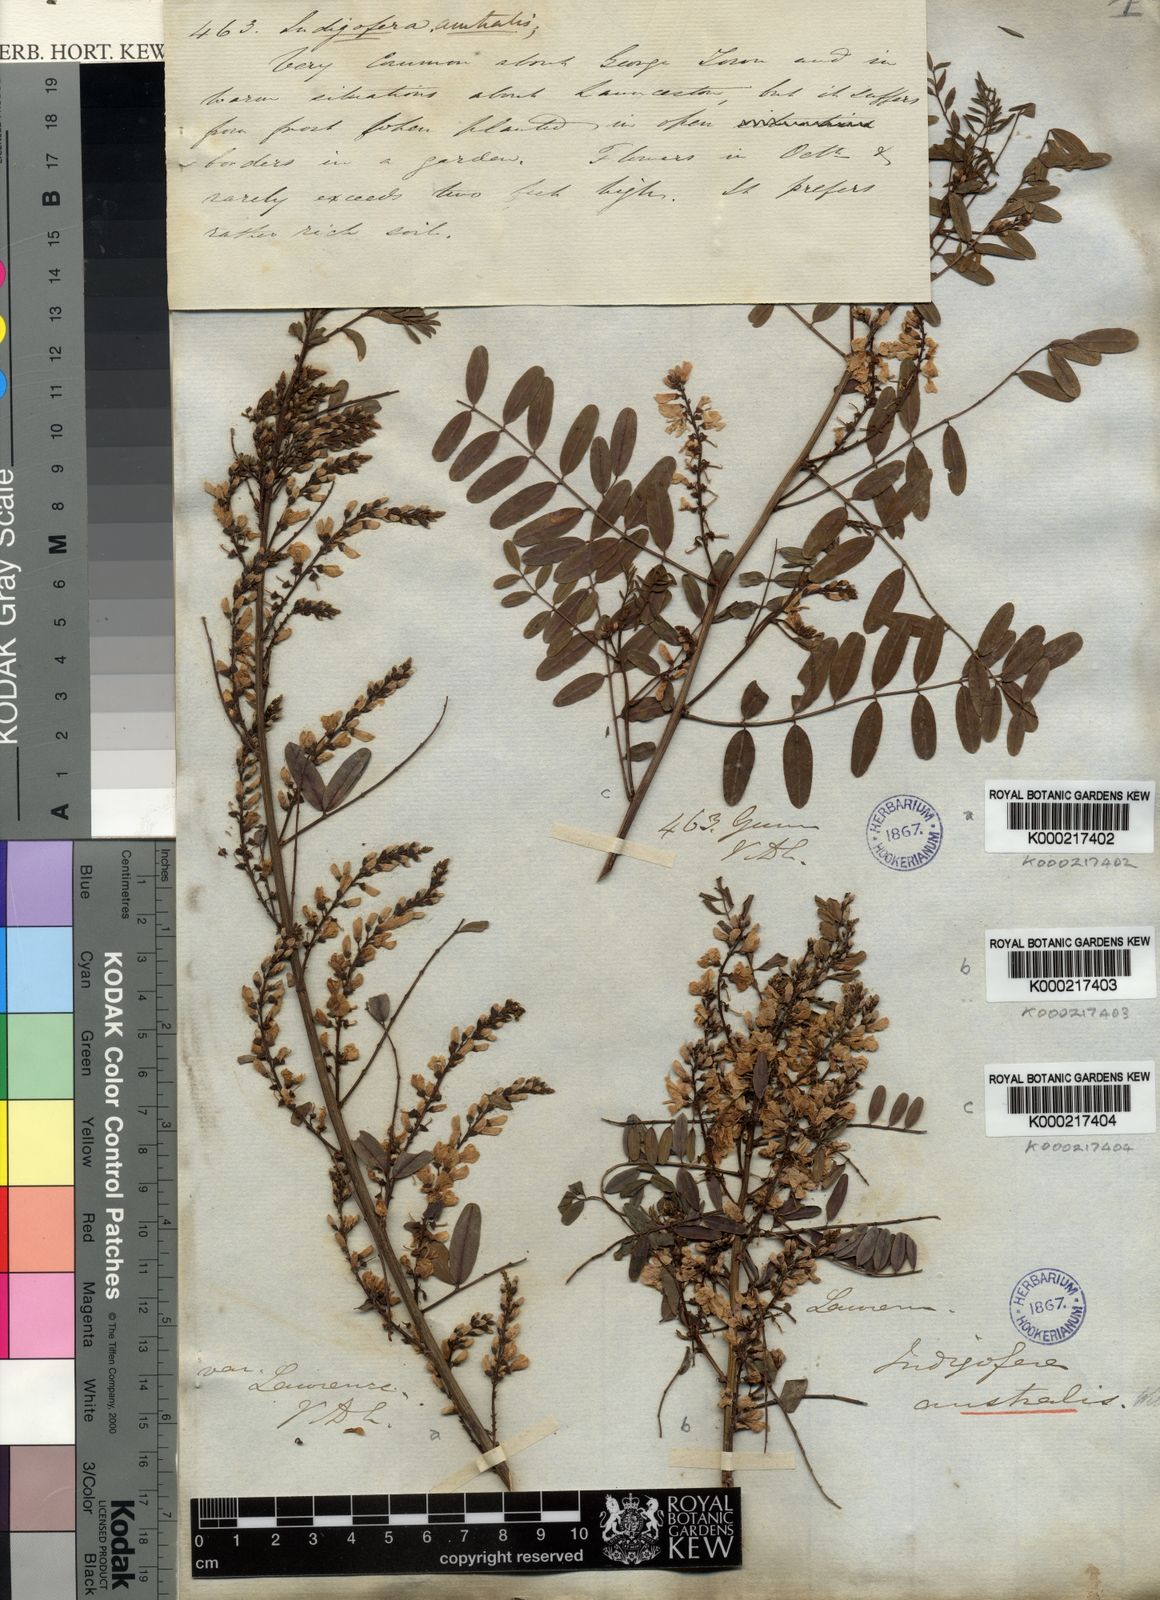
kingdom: Plantae
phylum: Tracheophyta
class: Magnoliopsida
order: Fabales
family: Fabaceae
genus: Indigofera
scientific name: Indigofera australis
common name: Australian indigo
